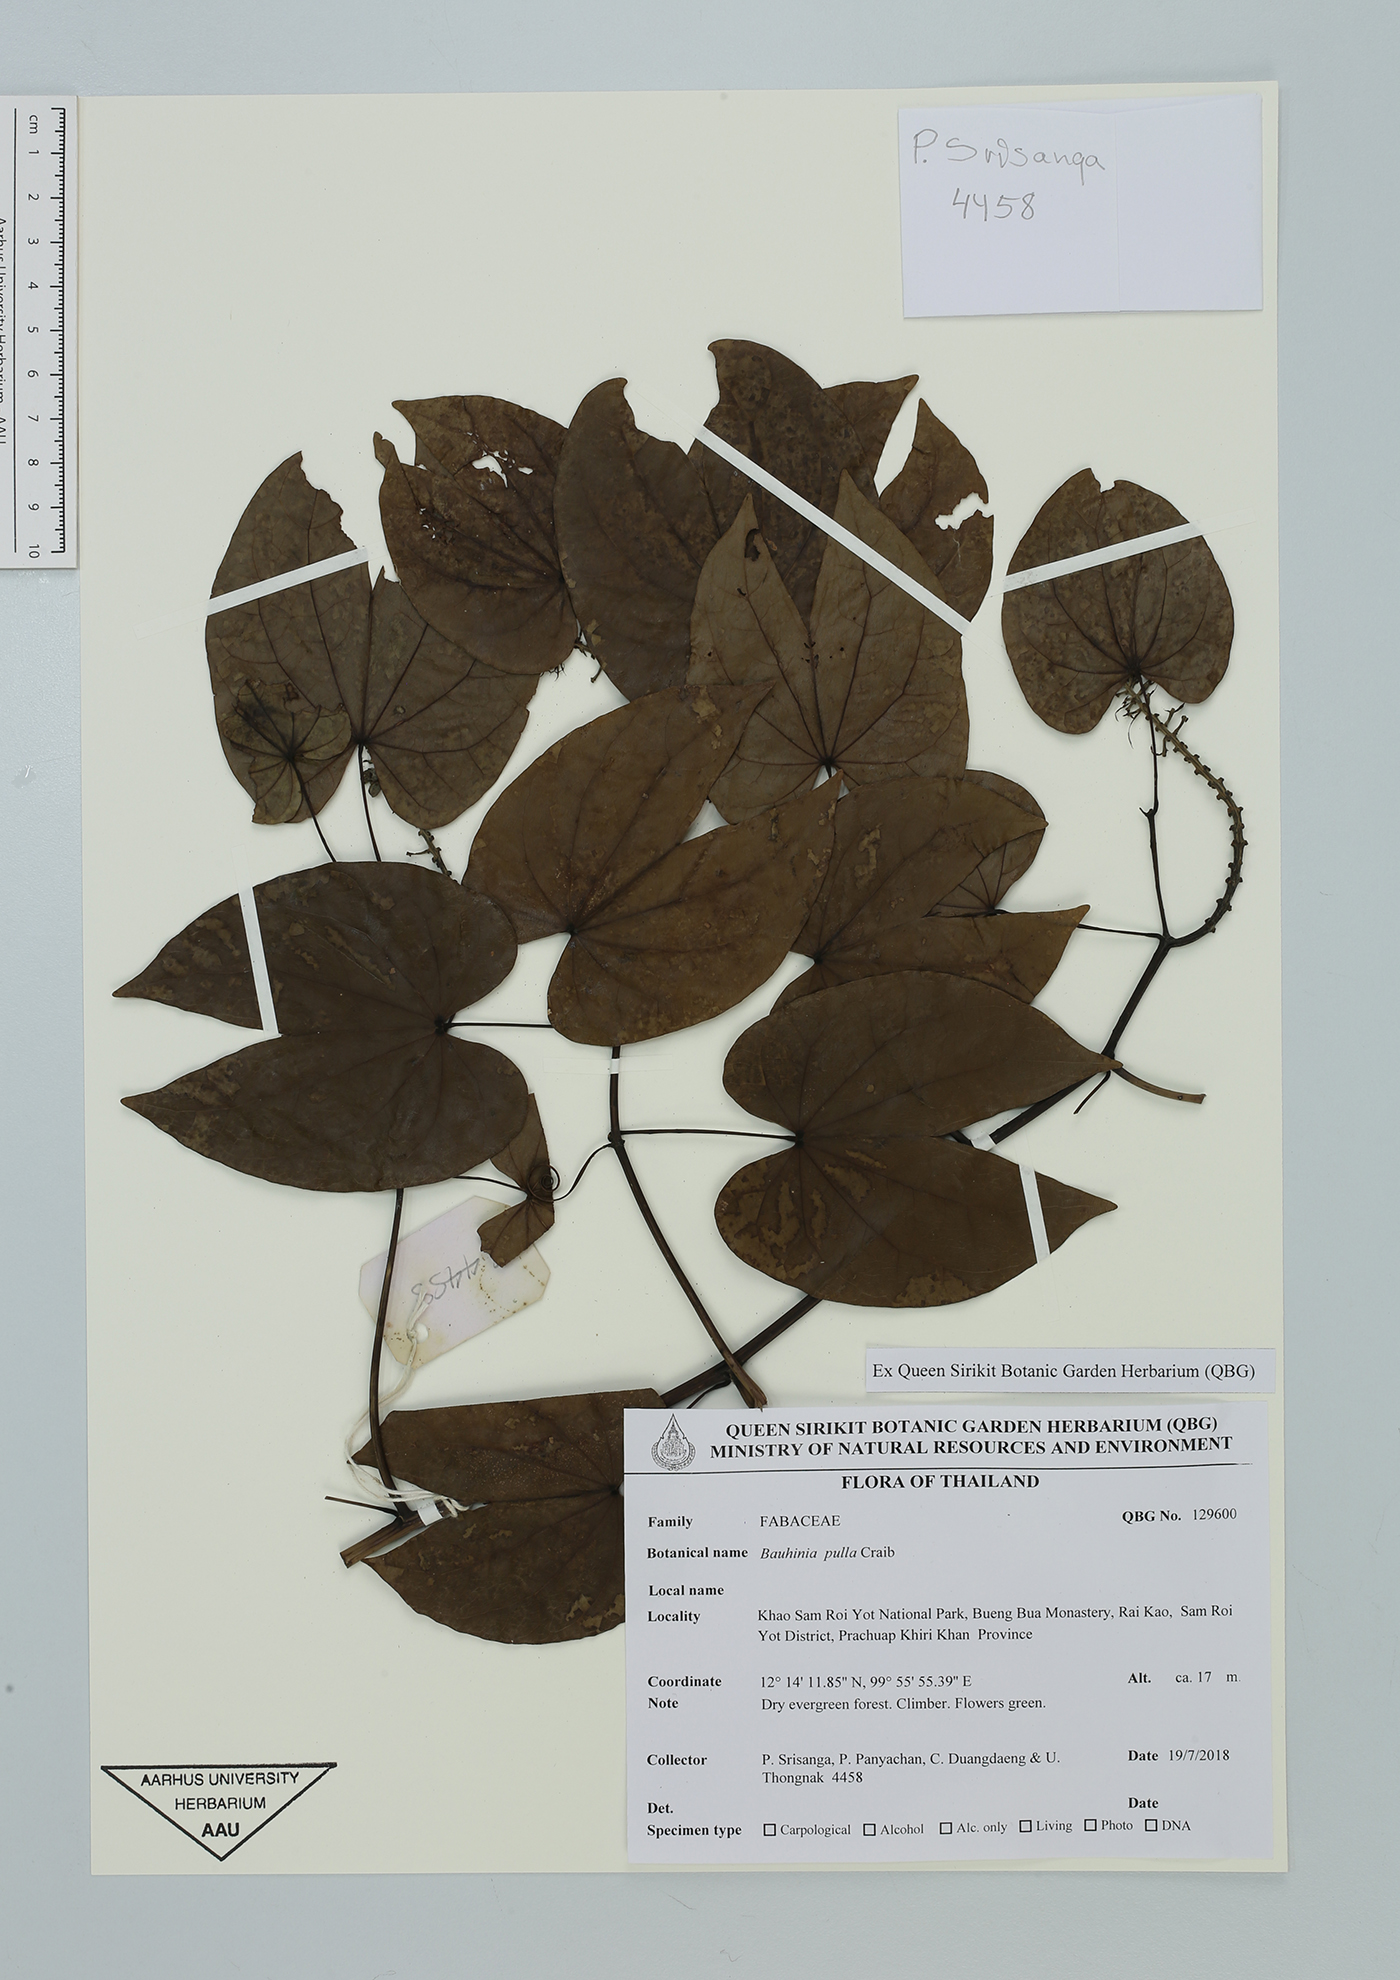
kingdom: Plantae
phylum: Tracheophyta
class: Magnoliopsida
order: Fabales
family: Fabaceae
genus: Phanera
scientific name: Phanera pulla
